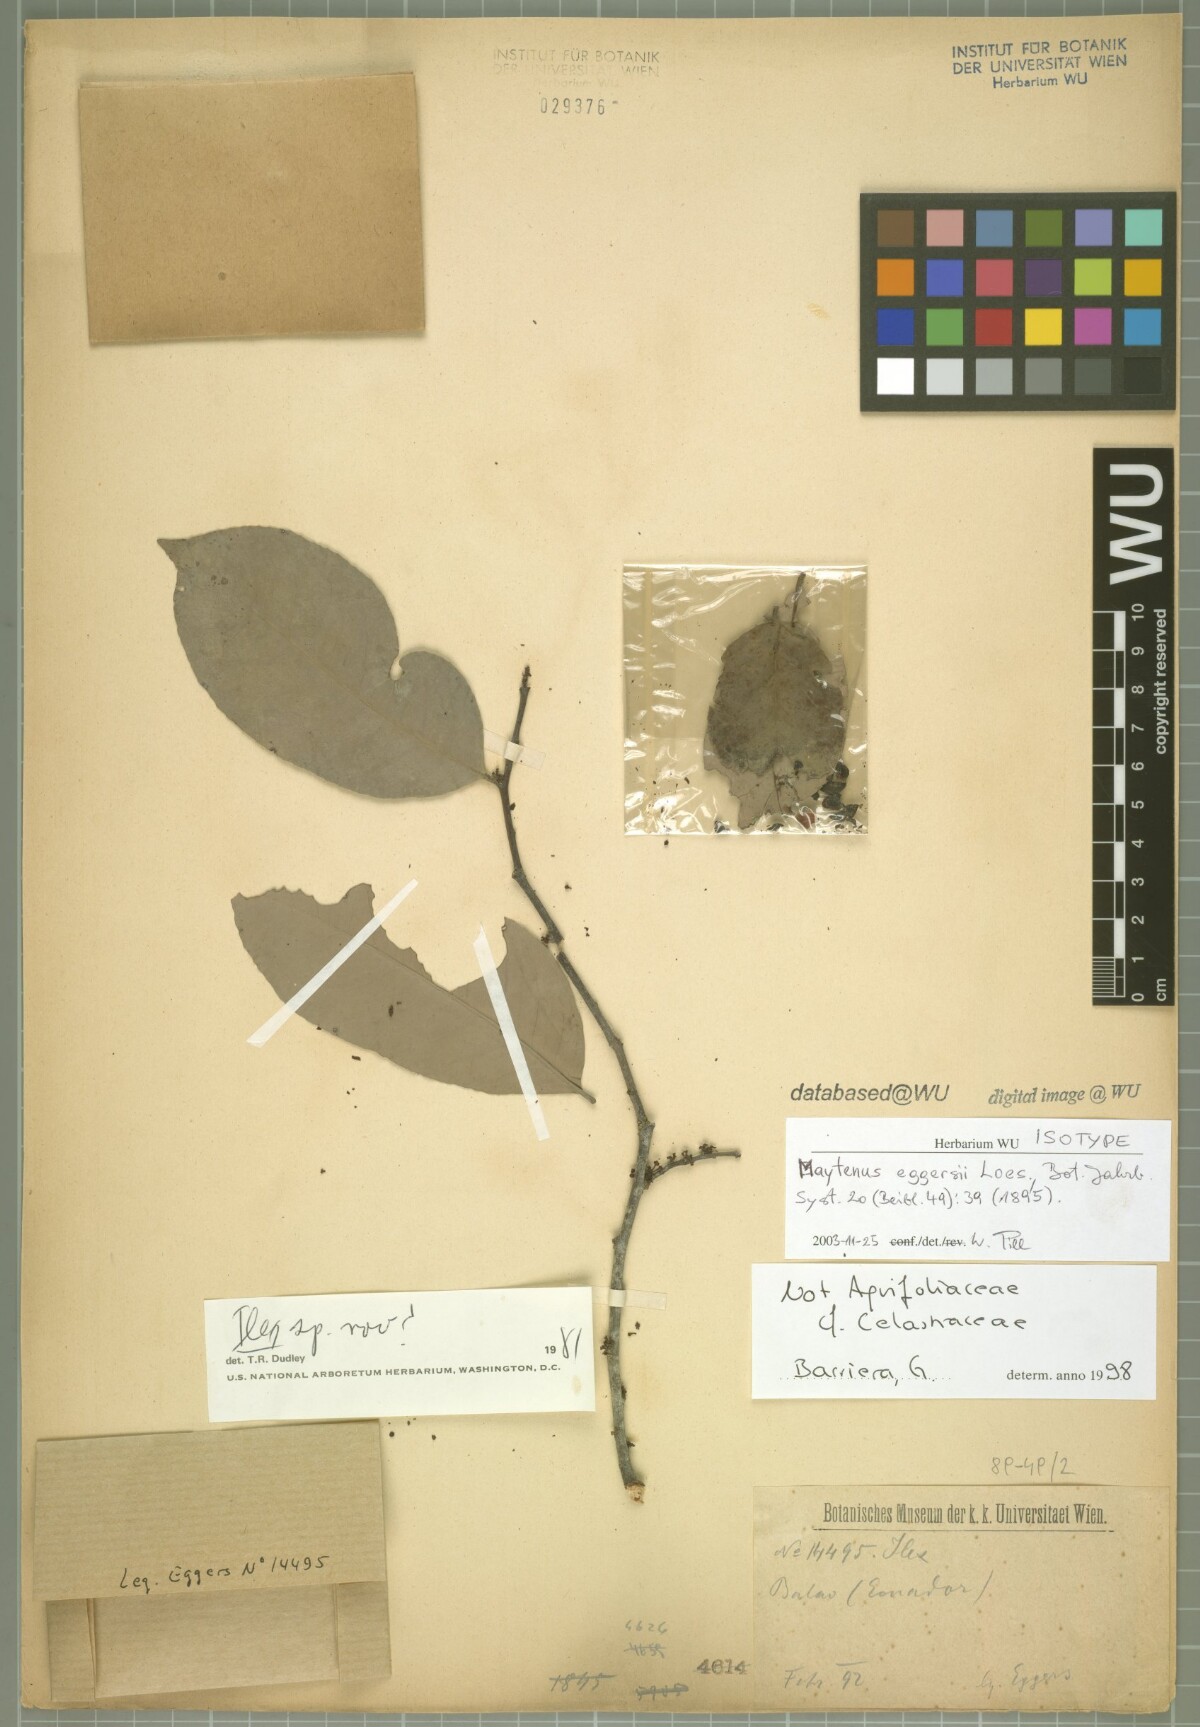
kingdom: Plantae
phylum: Tracheophyta
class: Magnoliopsida
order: Celastrales
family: Celastraceae
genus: Monteverdia
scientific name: Monteverdia eggersii
